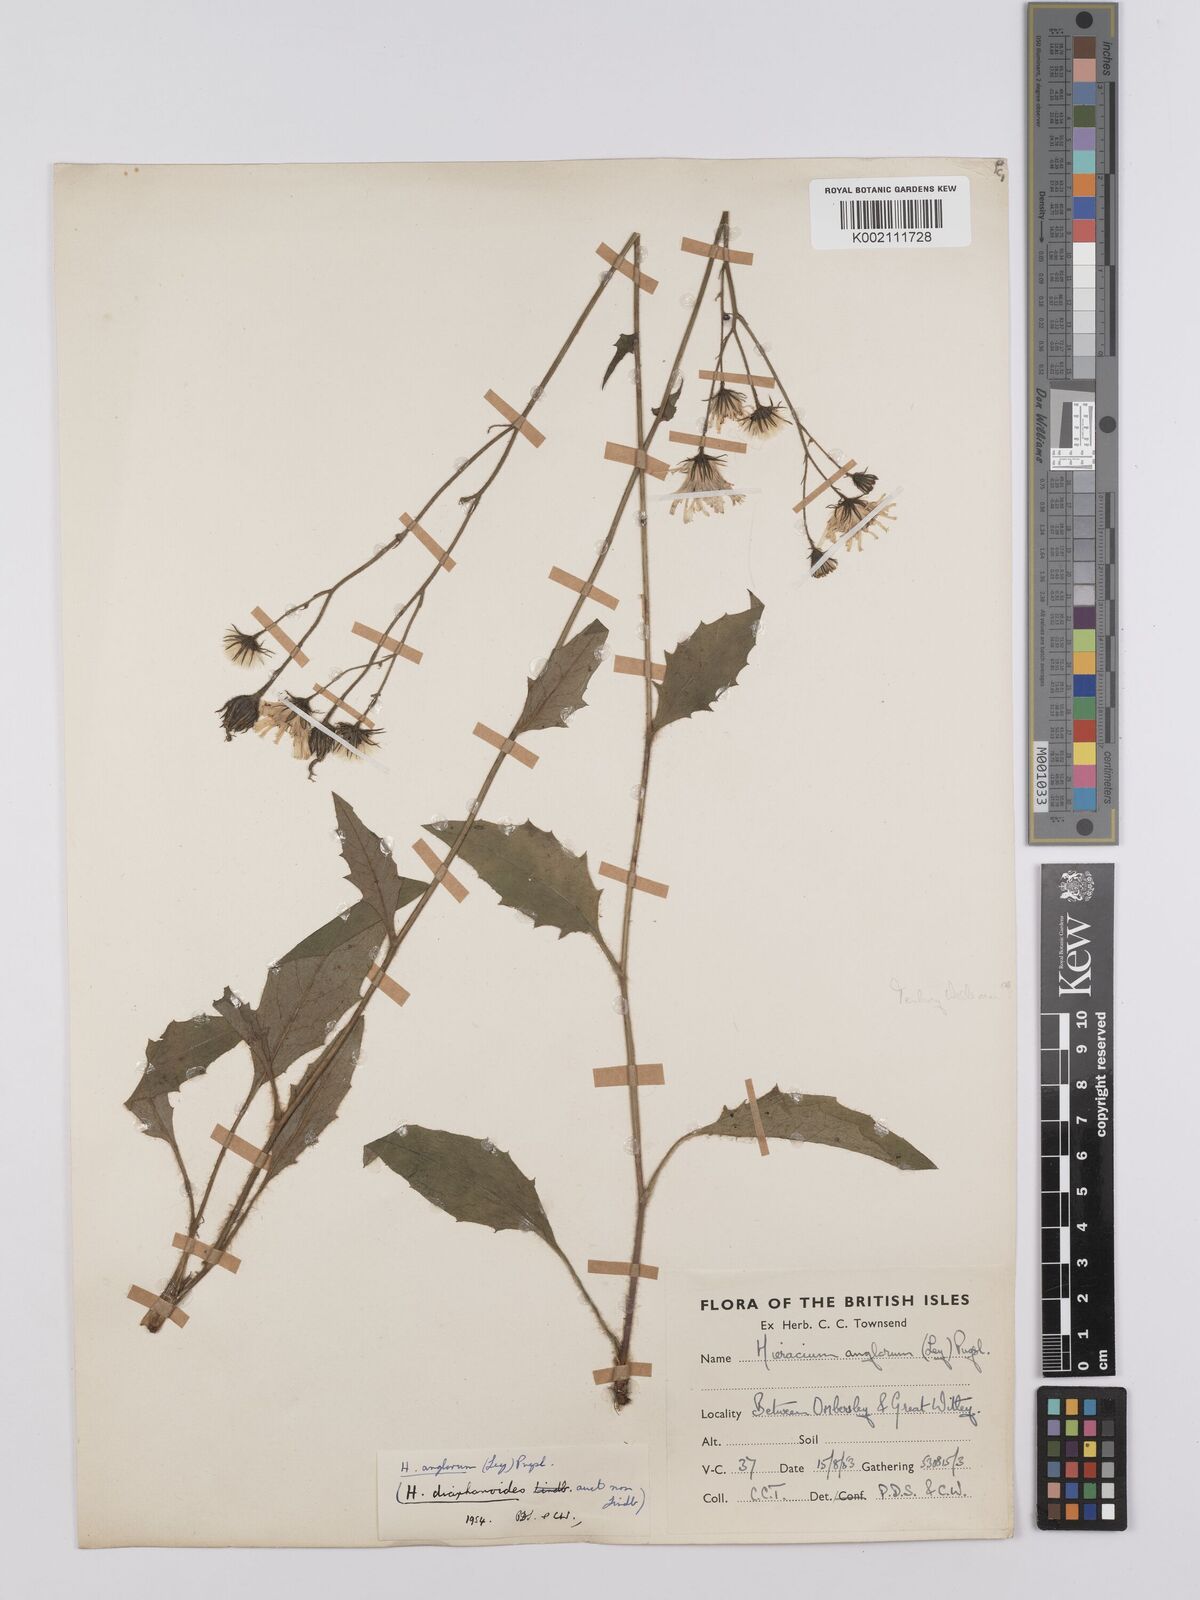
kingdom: Plantae
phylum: Tracheophyta
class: Magnoliopsida
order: Asterales
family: Asteraceae
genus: Hieracium
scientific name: Hieracium anglorum
